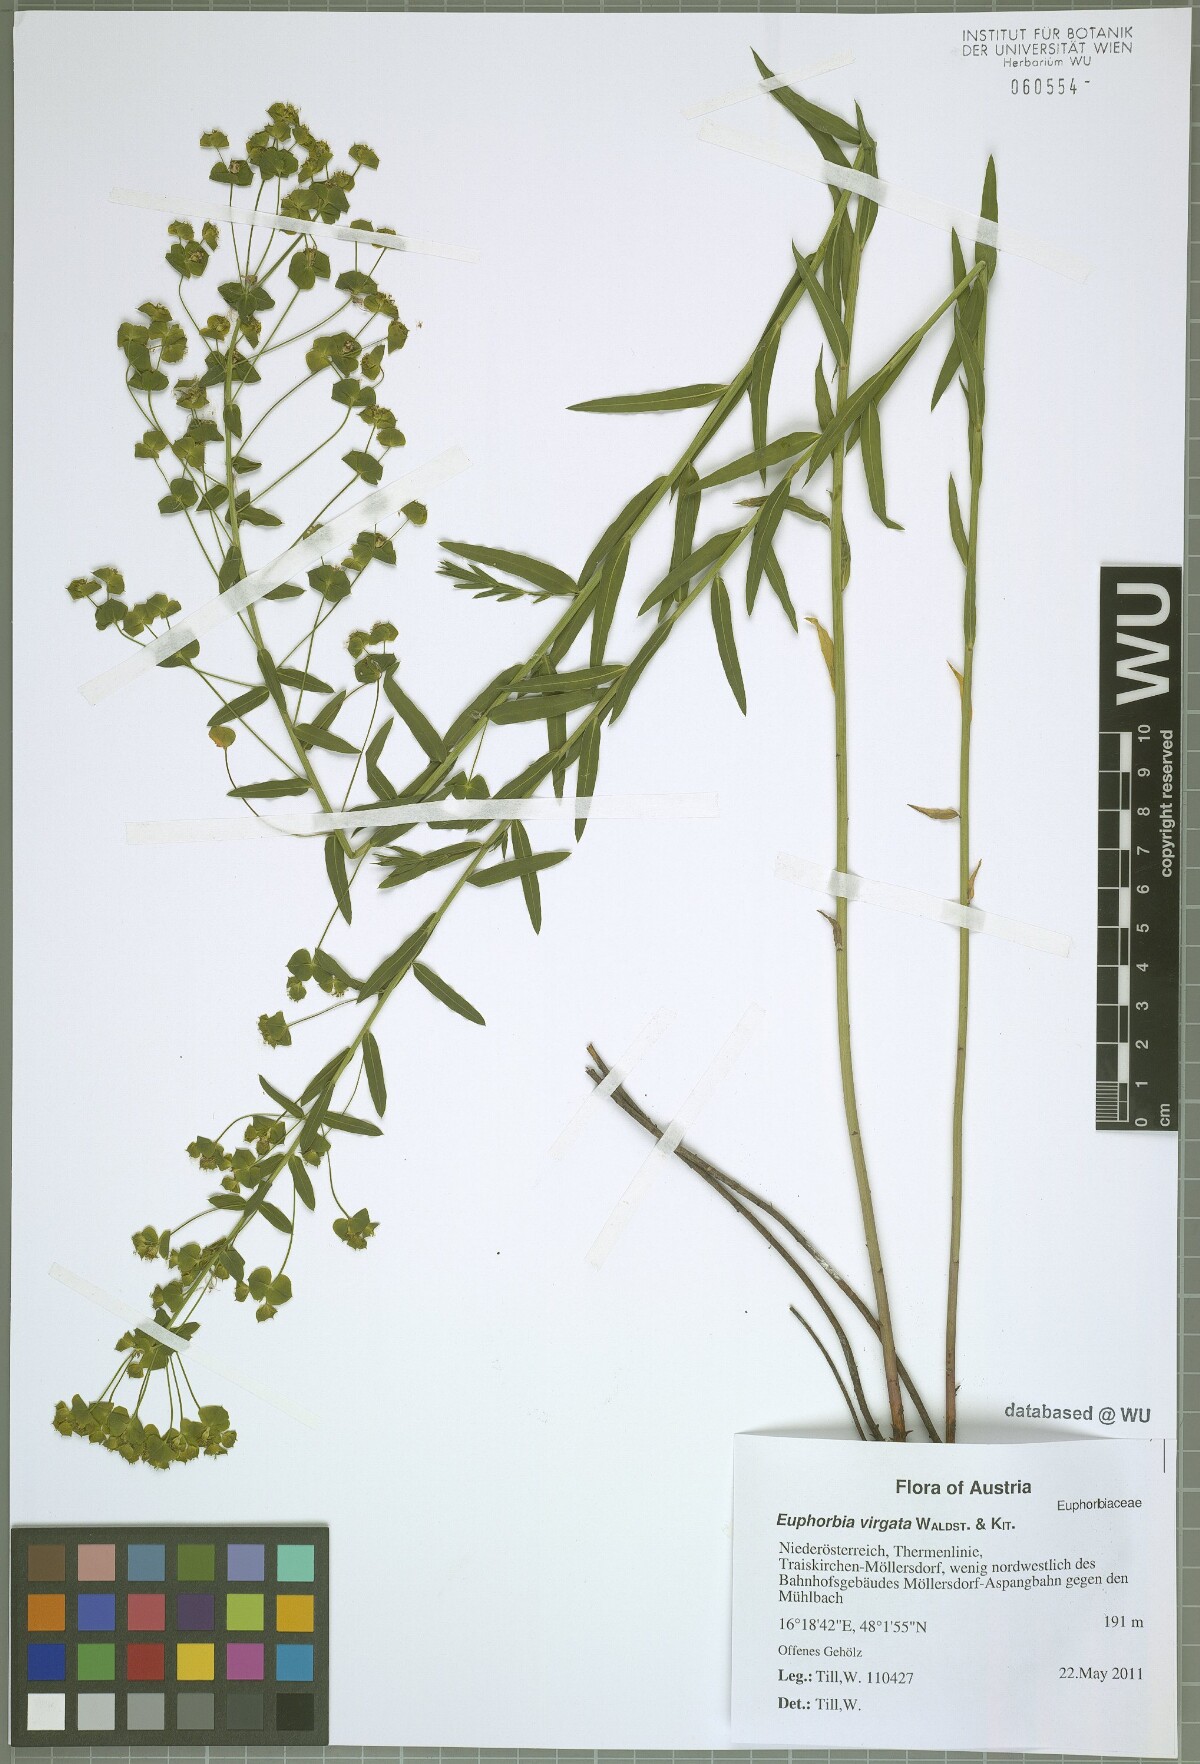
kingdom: Plantae
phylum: Tracheophyta
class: Magnoliopsida
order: Malpighiales
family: Euphorbiaceae
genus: Euphorbia
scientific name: Euphorbia virgata
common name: Leafy spurge
